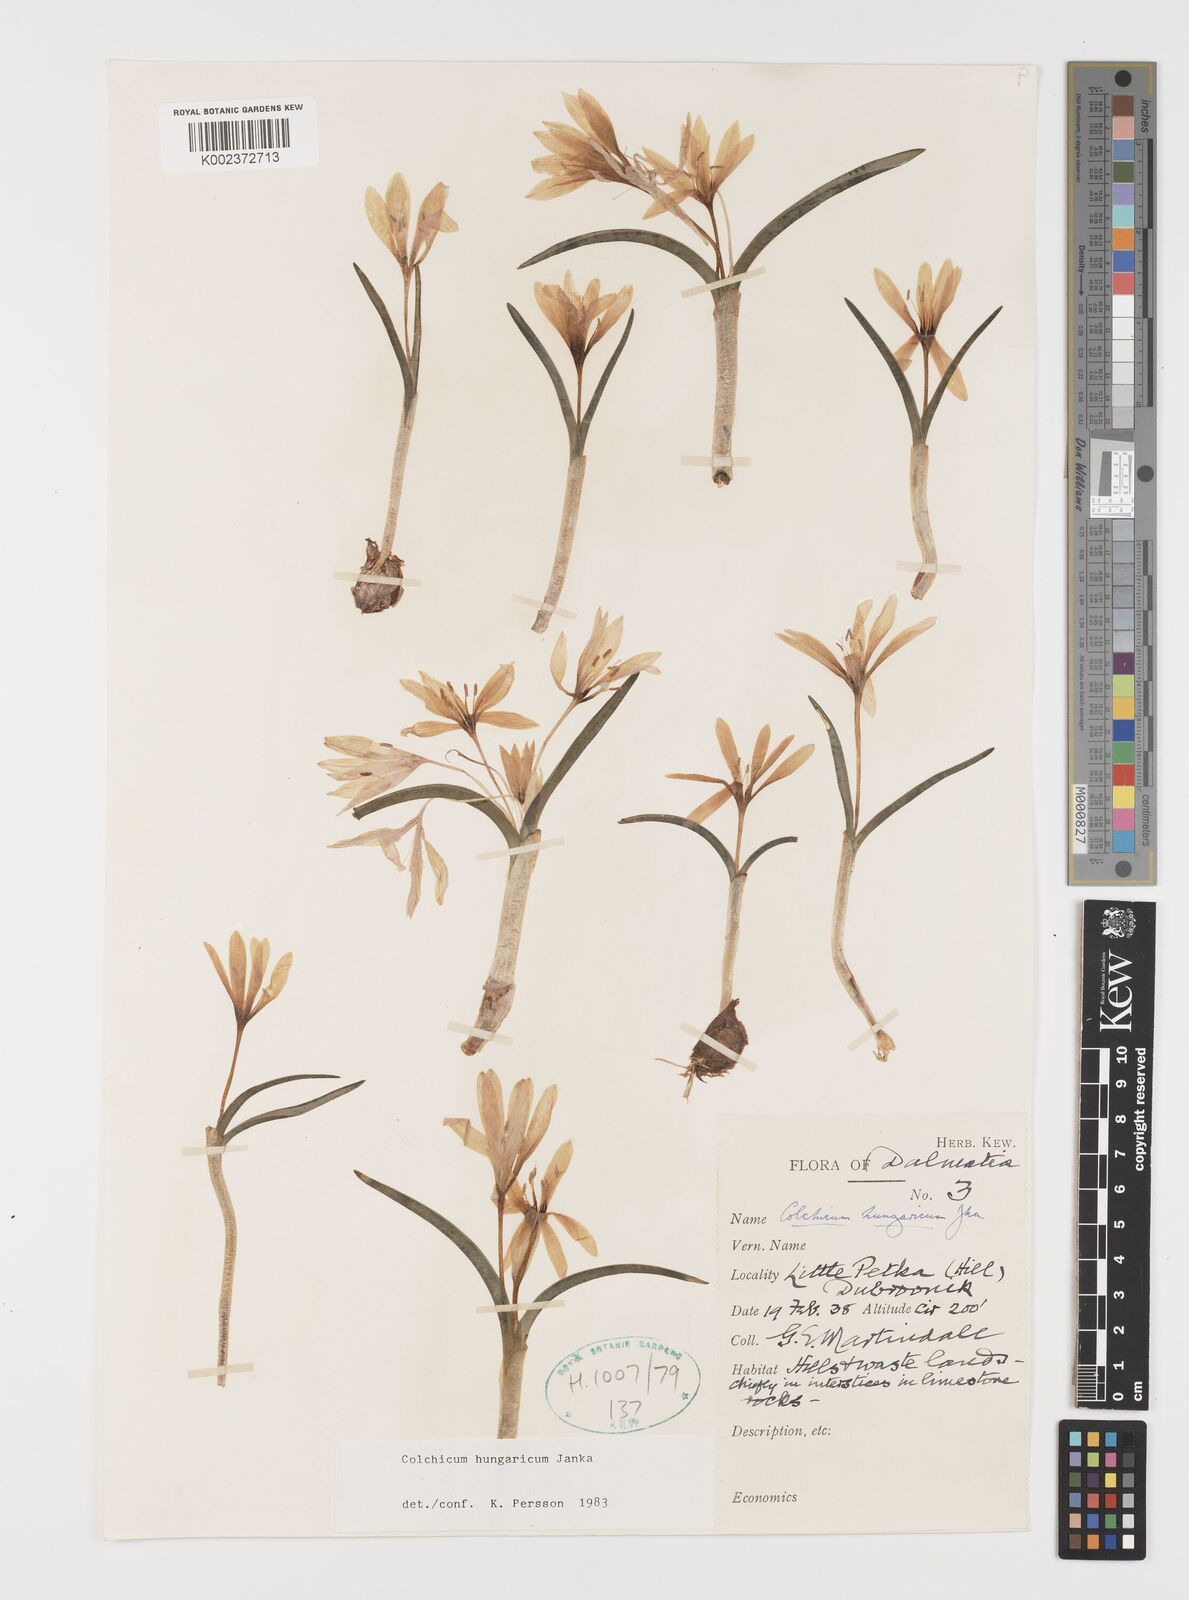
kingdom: Plantae
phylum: Tracheophyta
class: Liliopsida
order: Liliales
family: Colchicaceae
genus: Colchicum
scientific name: Colchicum hungaricum
